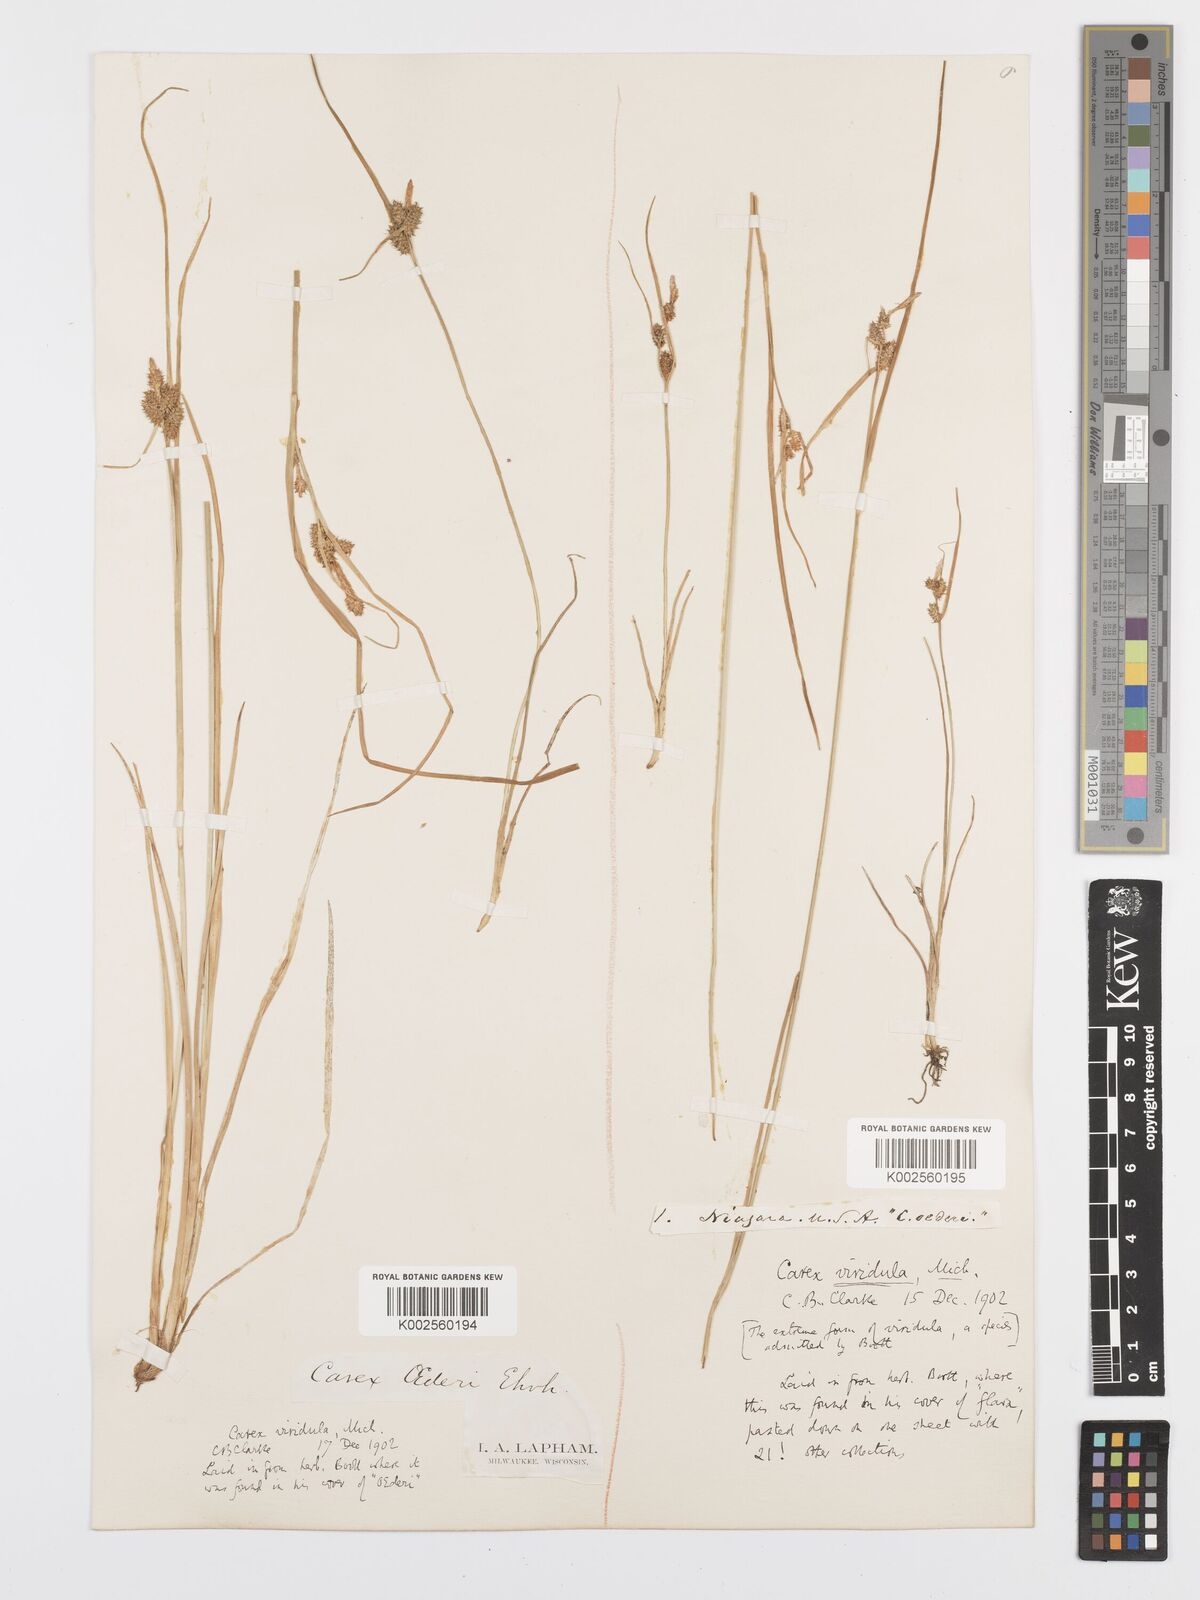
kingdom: Plantae
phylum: Tracheophyta
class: Liliopsida
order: Poales
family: Cyperaceae
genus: Carex
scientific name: Carex oederi
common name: Common & small-fruited yellow-sedge
